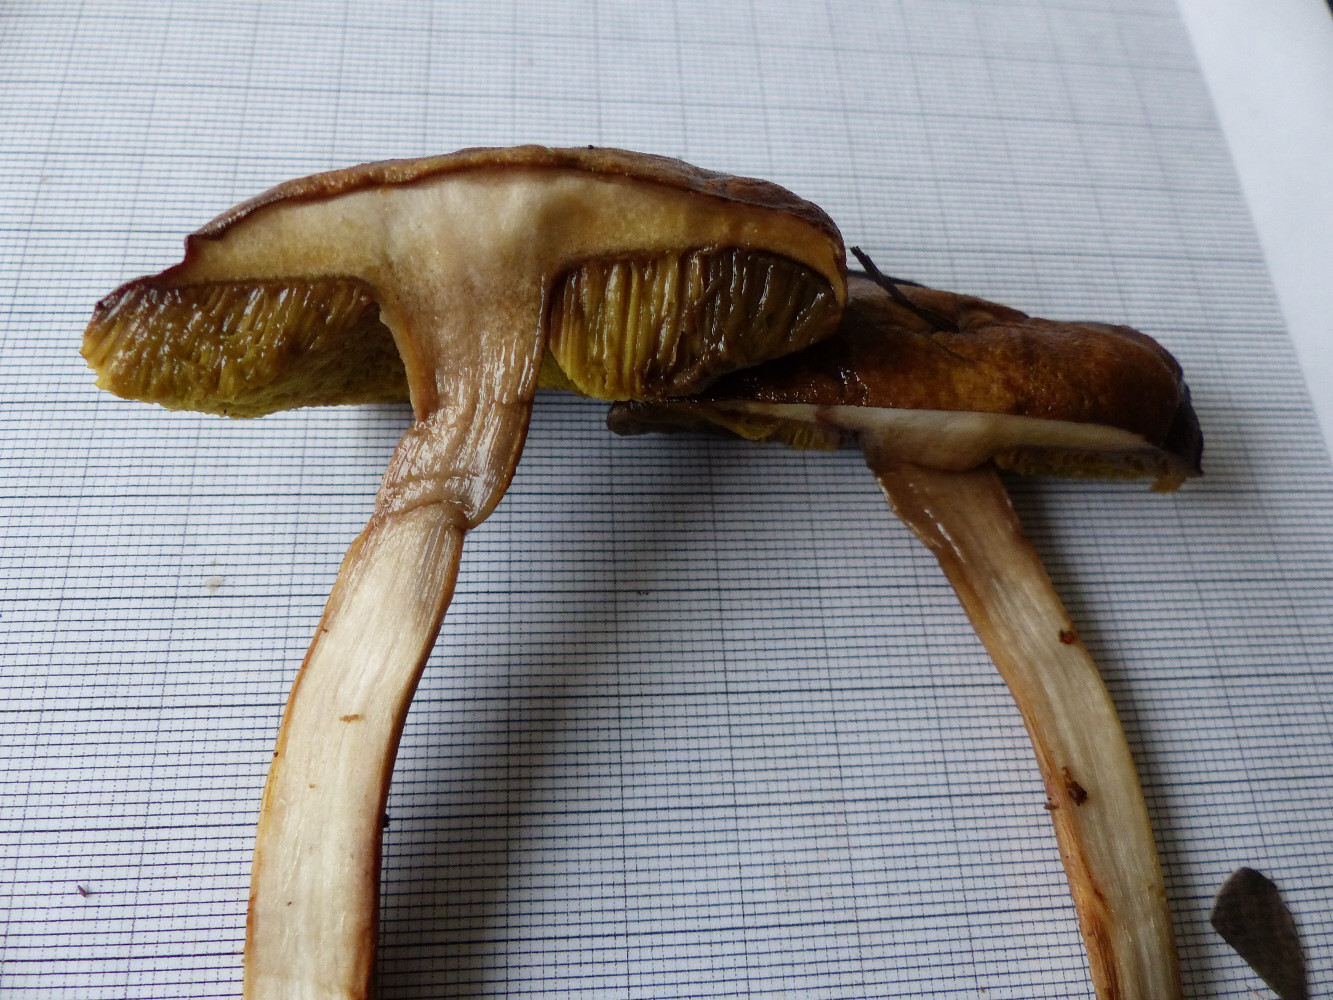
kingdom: Fungi
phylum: Basidiomycota
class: Agaricomycetes
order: Boletales
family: Boletaceae
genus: Xerocomus
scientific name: Xerocomus ferrugineus
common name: vaskeskinds-rørhat
